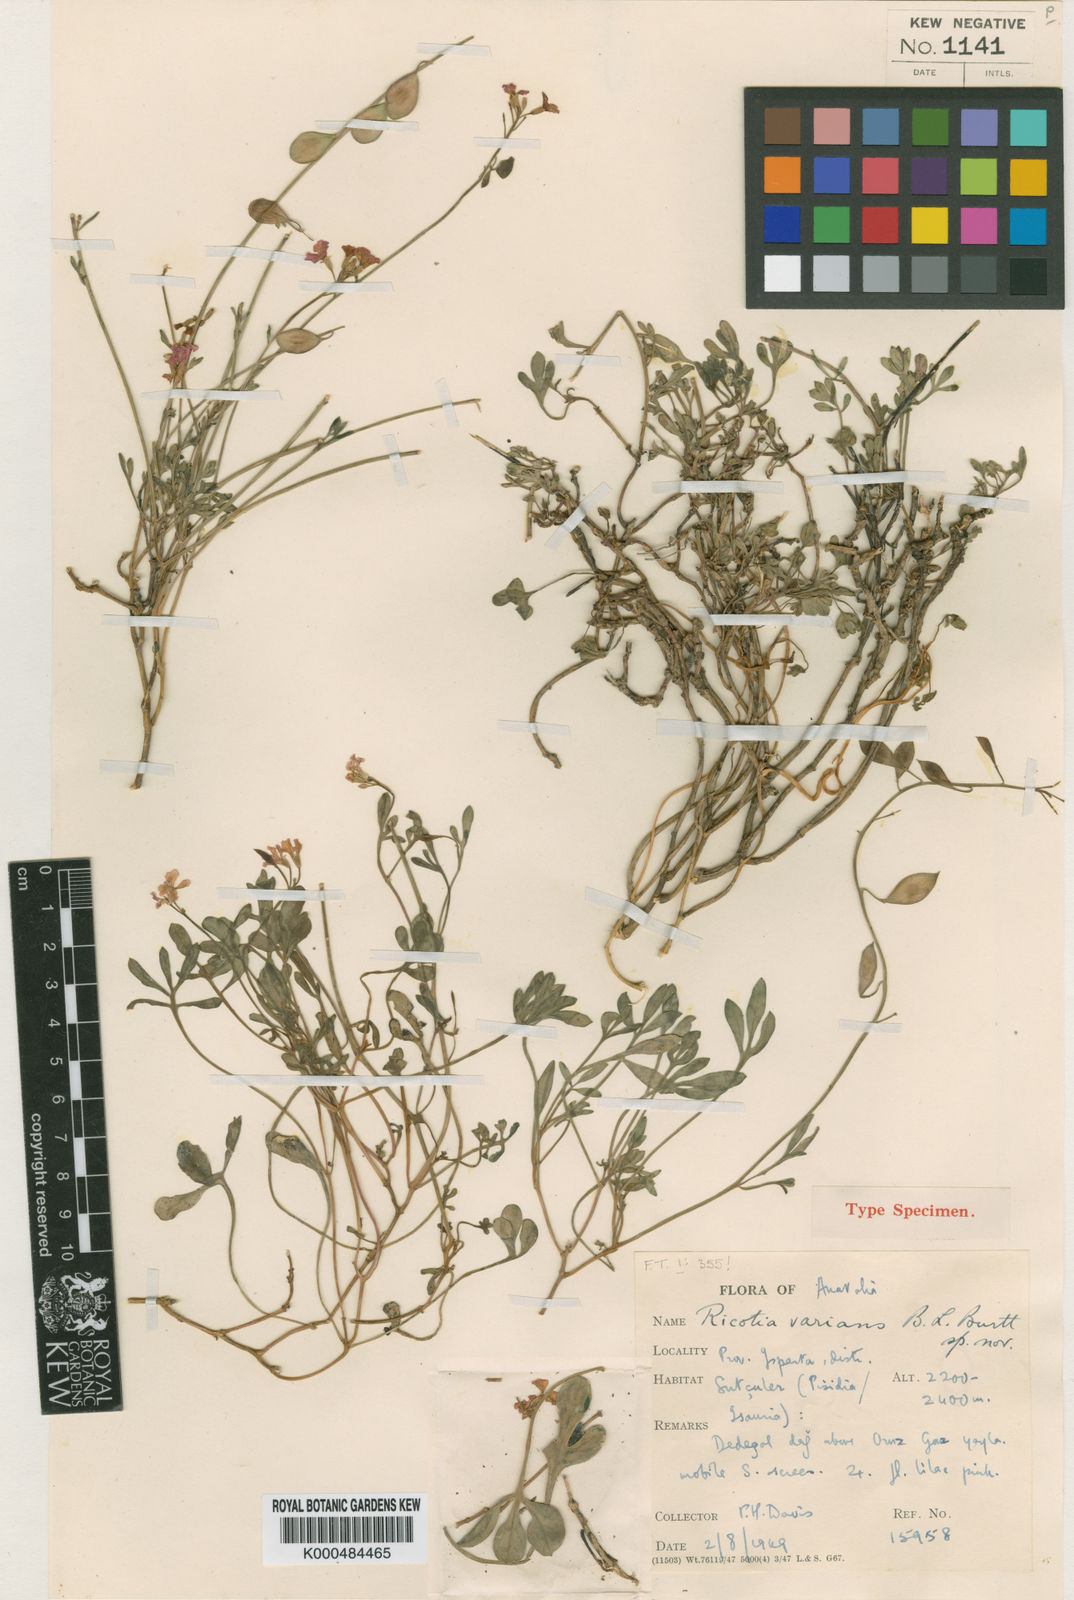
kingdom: Plantae
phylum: Tracheophyta
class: Magnoliopsida
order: Brassicales
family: Brassicaceae
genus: Ricotia
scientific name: Ricotia varians
